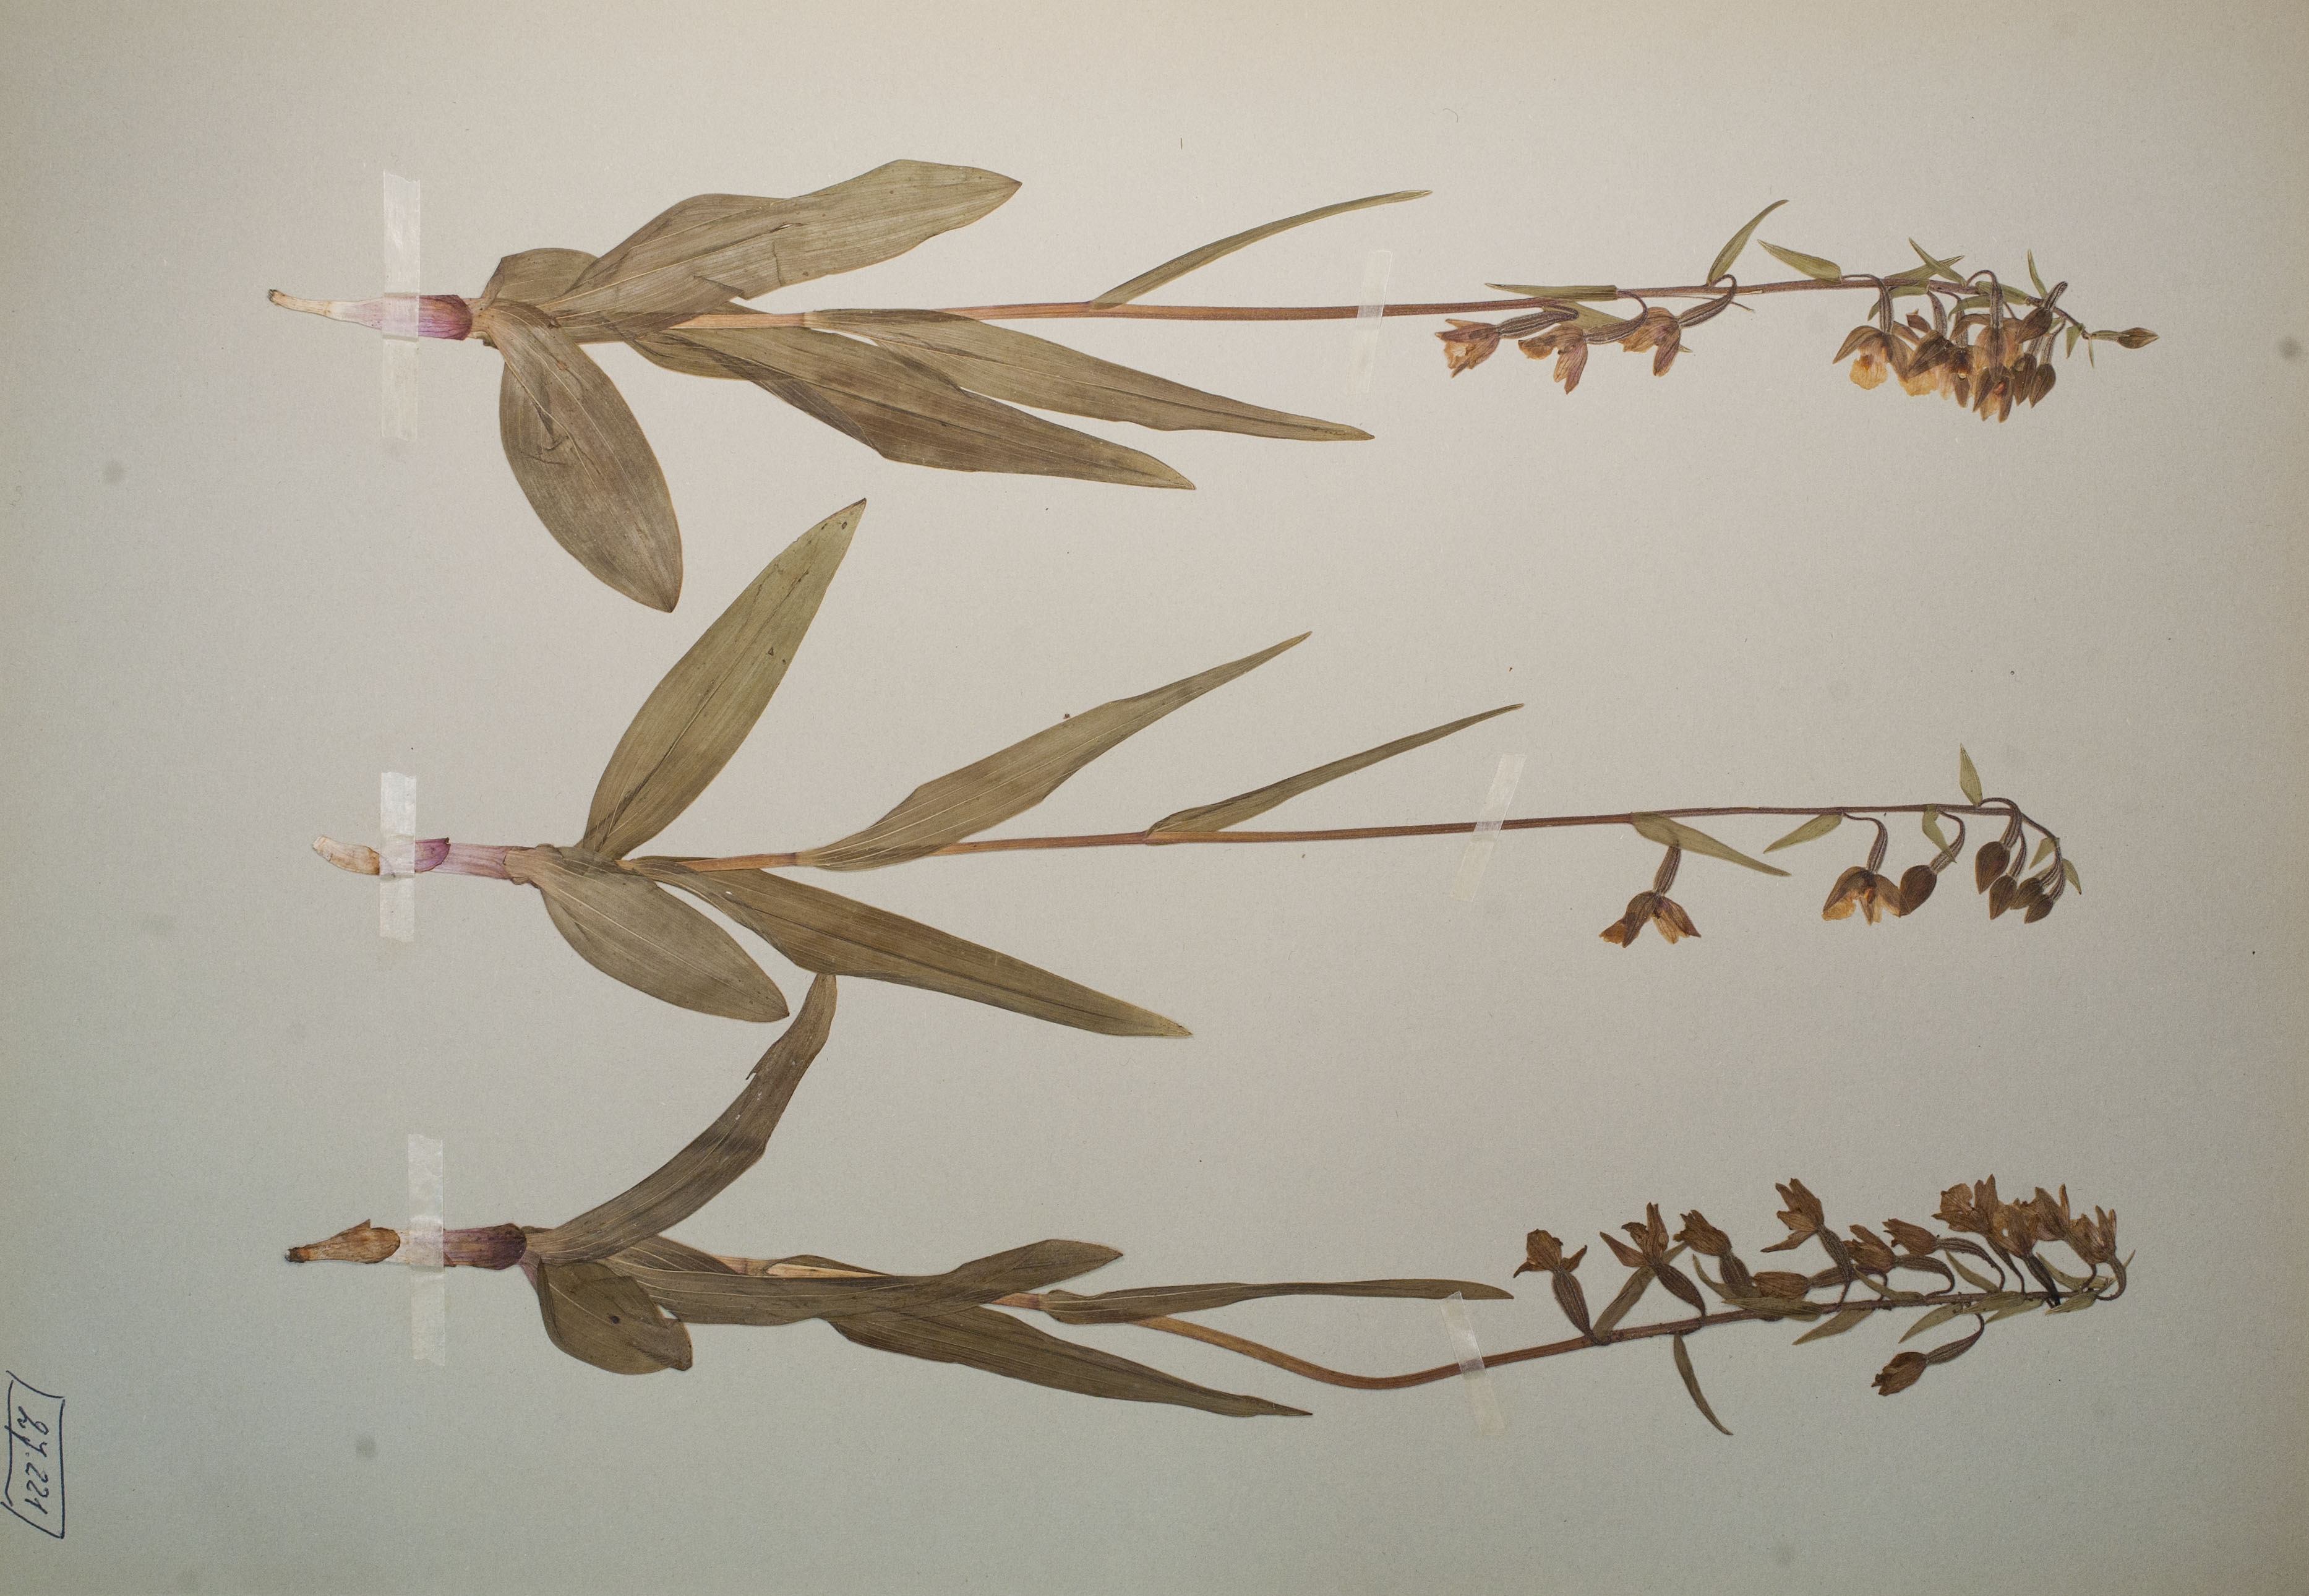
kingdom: Plantae
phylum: Tracheophyta
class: Liliopsida
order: Asparagales
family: Orchidaceae
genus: Epipactis
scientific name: Epipactis palustris
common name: Marsh helleborine
